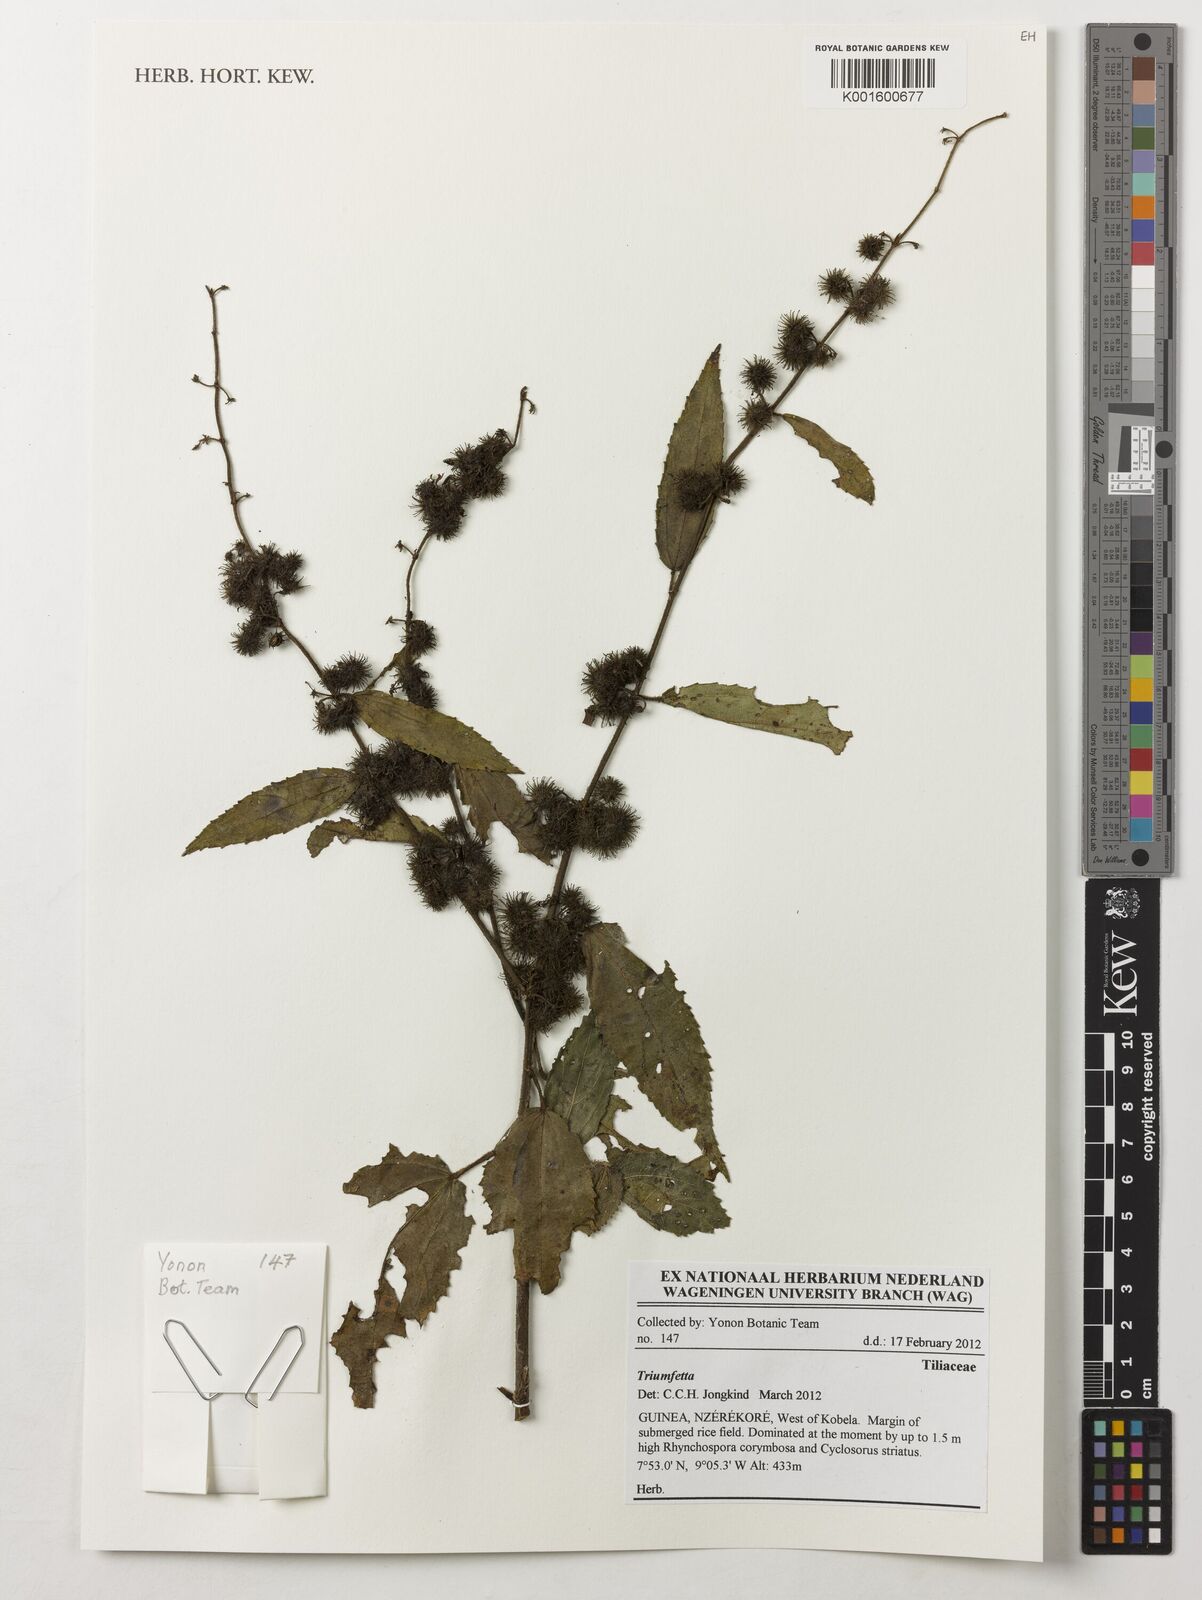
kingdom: Plantae
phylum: Tracheophyta
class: Magnoliopsida
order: Malvales
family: Malvaceae
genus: Triumfetta
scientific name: Triumfetta
